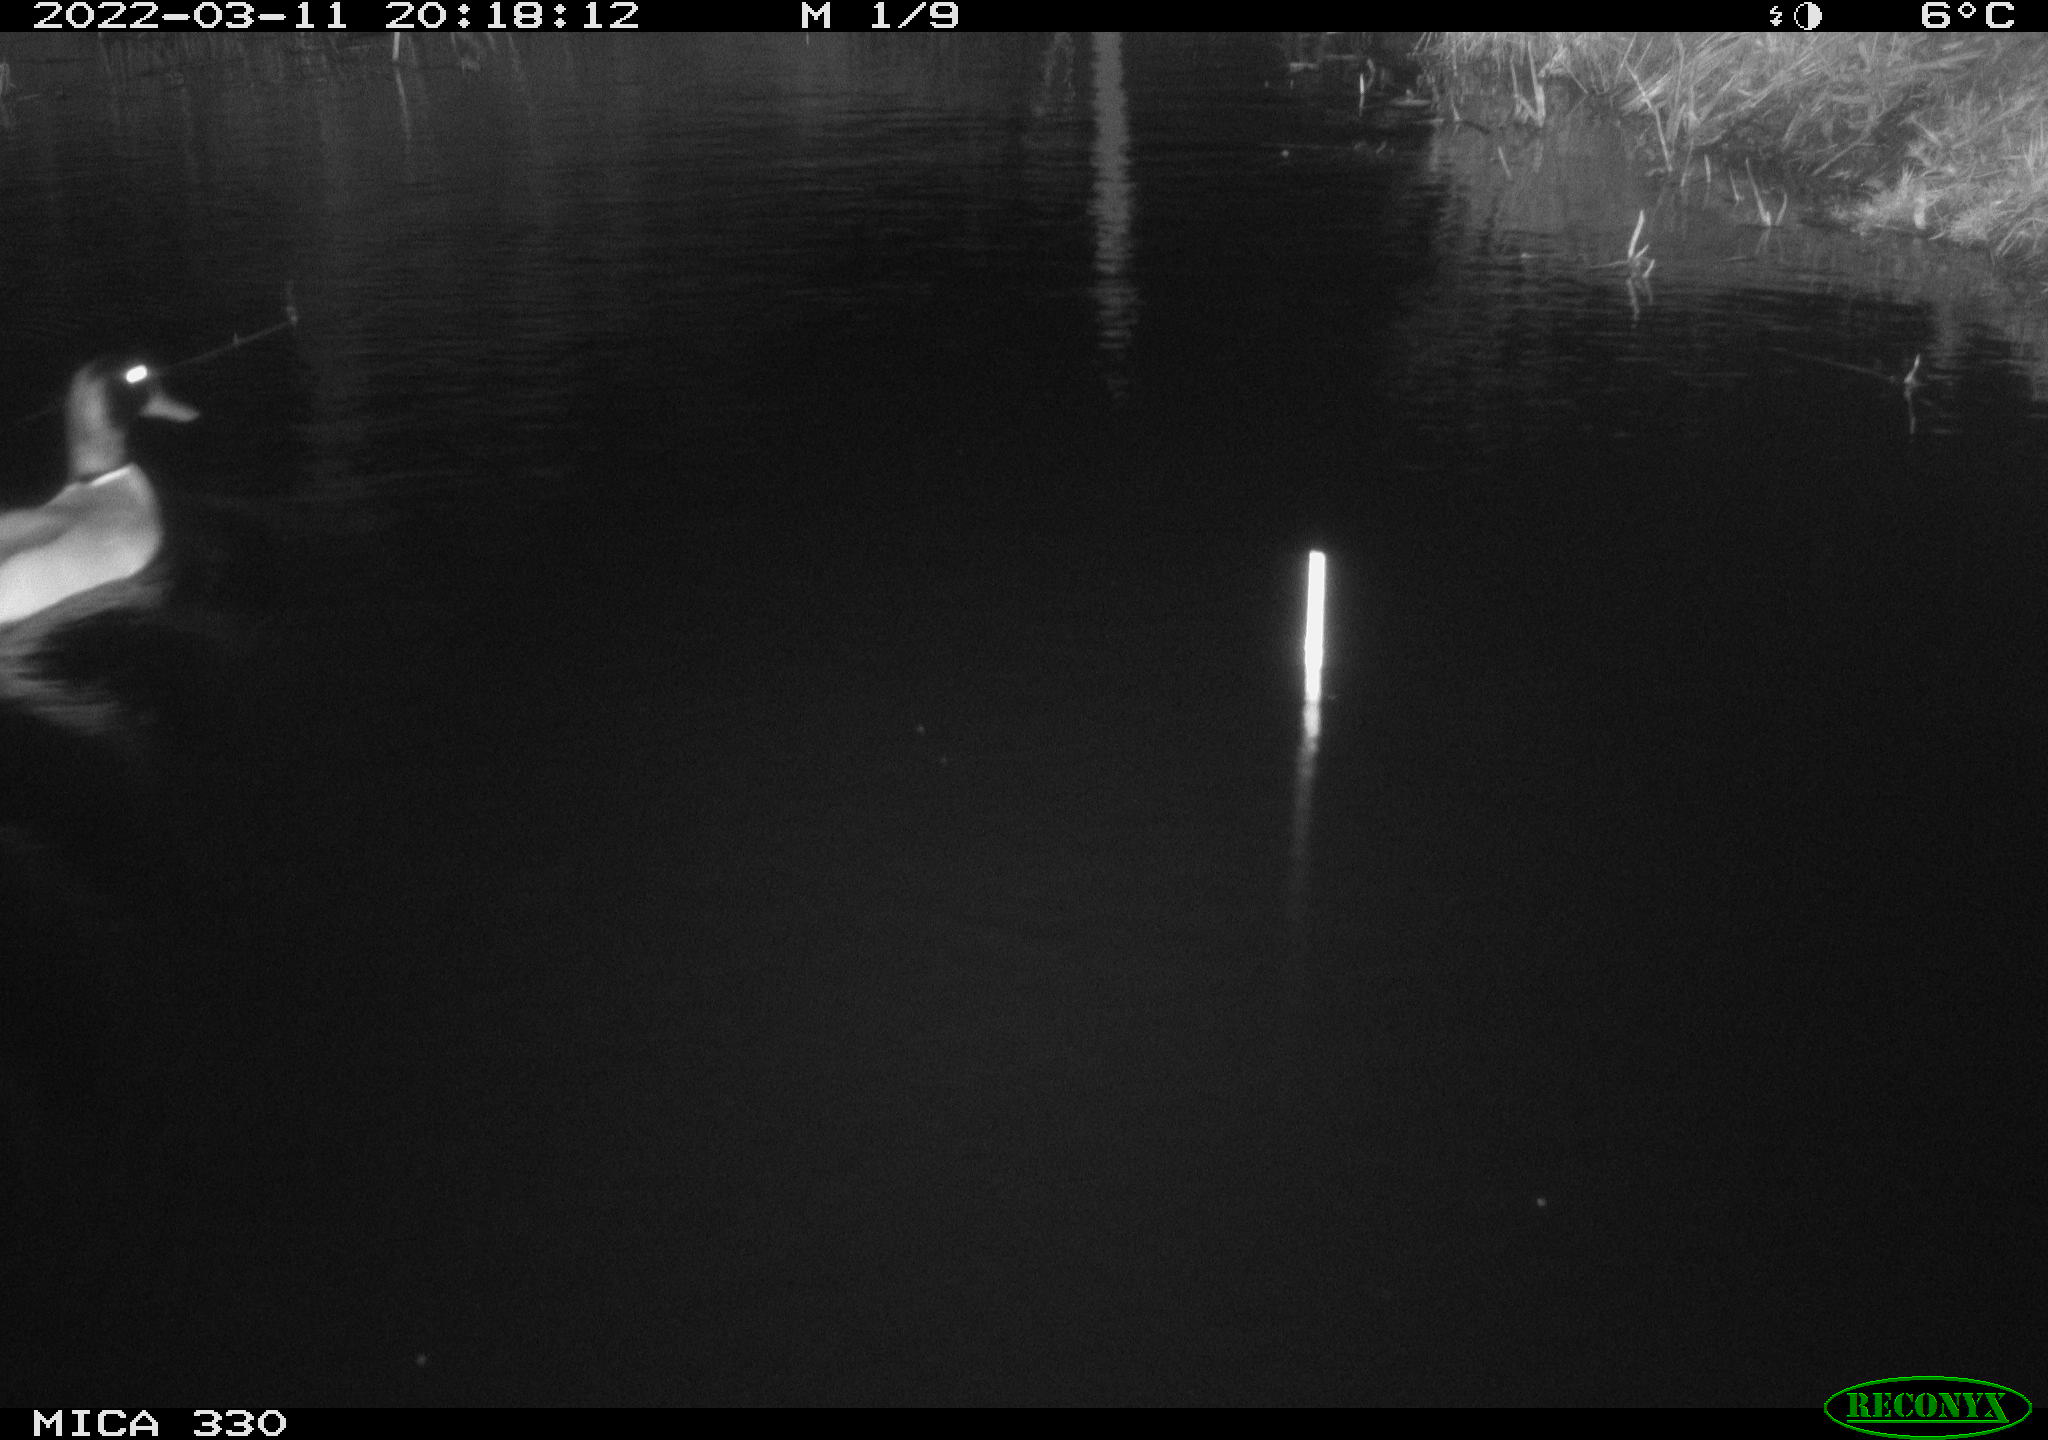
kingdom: Animalia
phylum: Chordata
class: Aves
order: Anseriformes
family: Anatidae
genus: Anas
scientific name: Anas platyrhynchos
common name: Mallard
